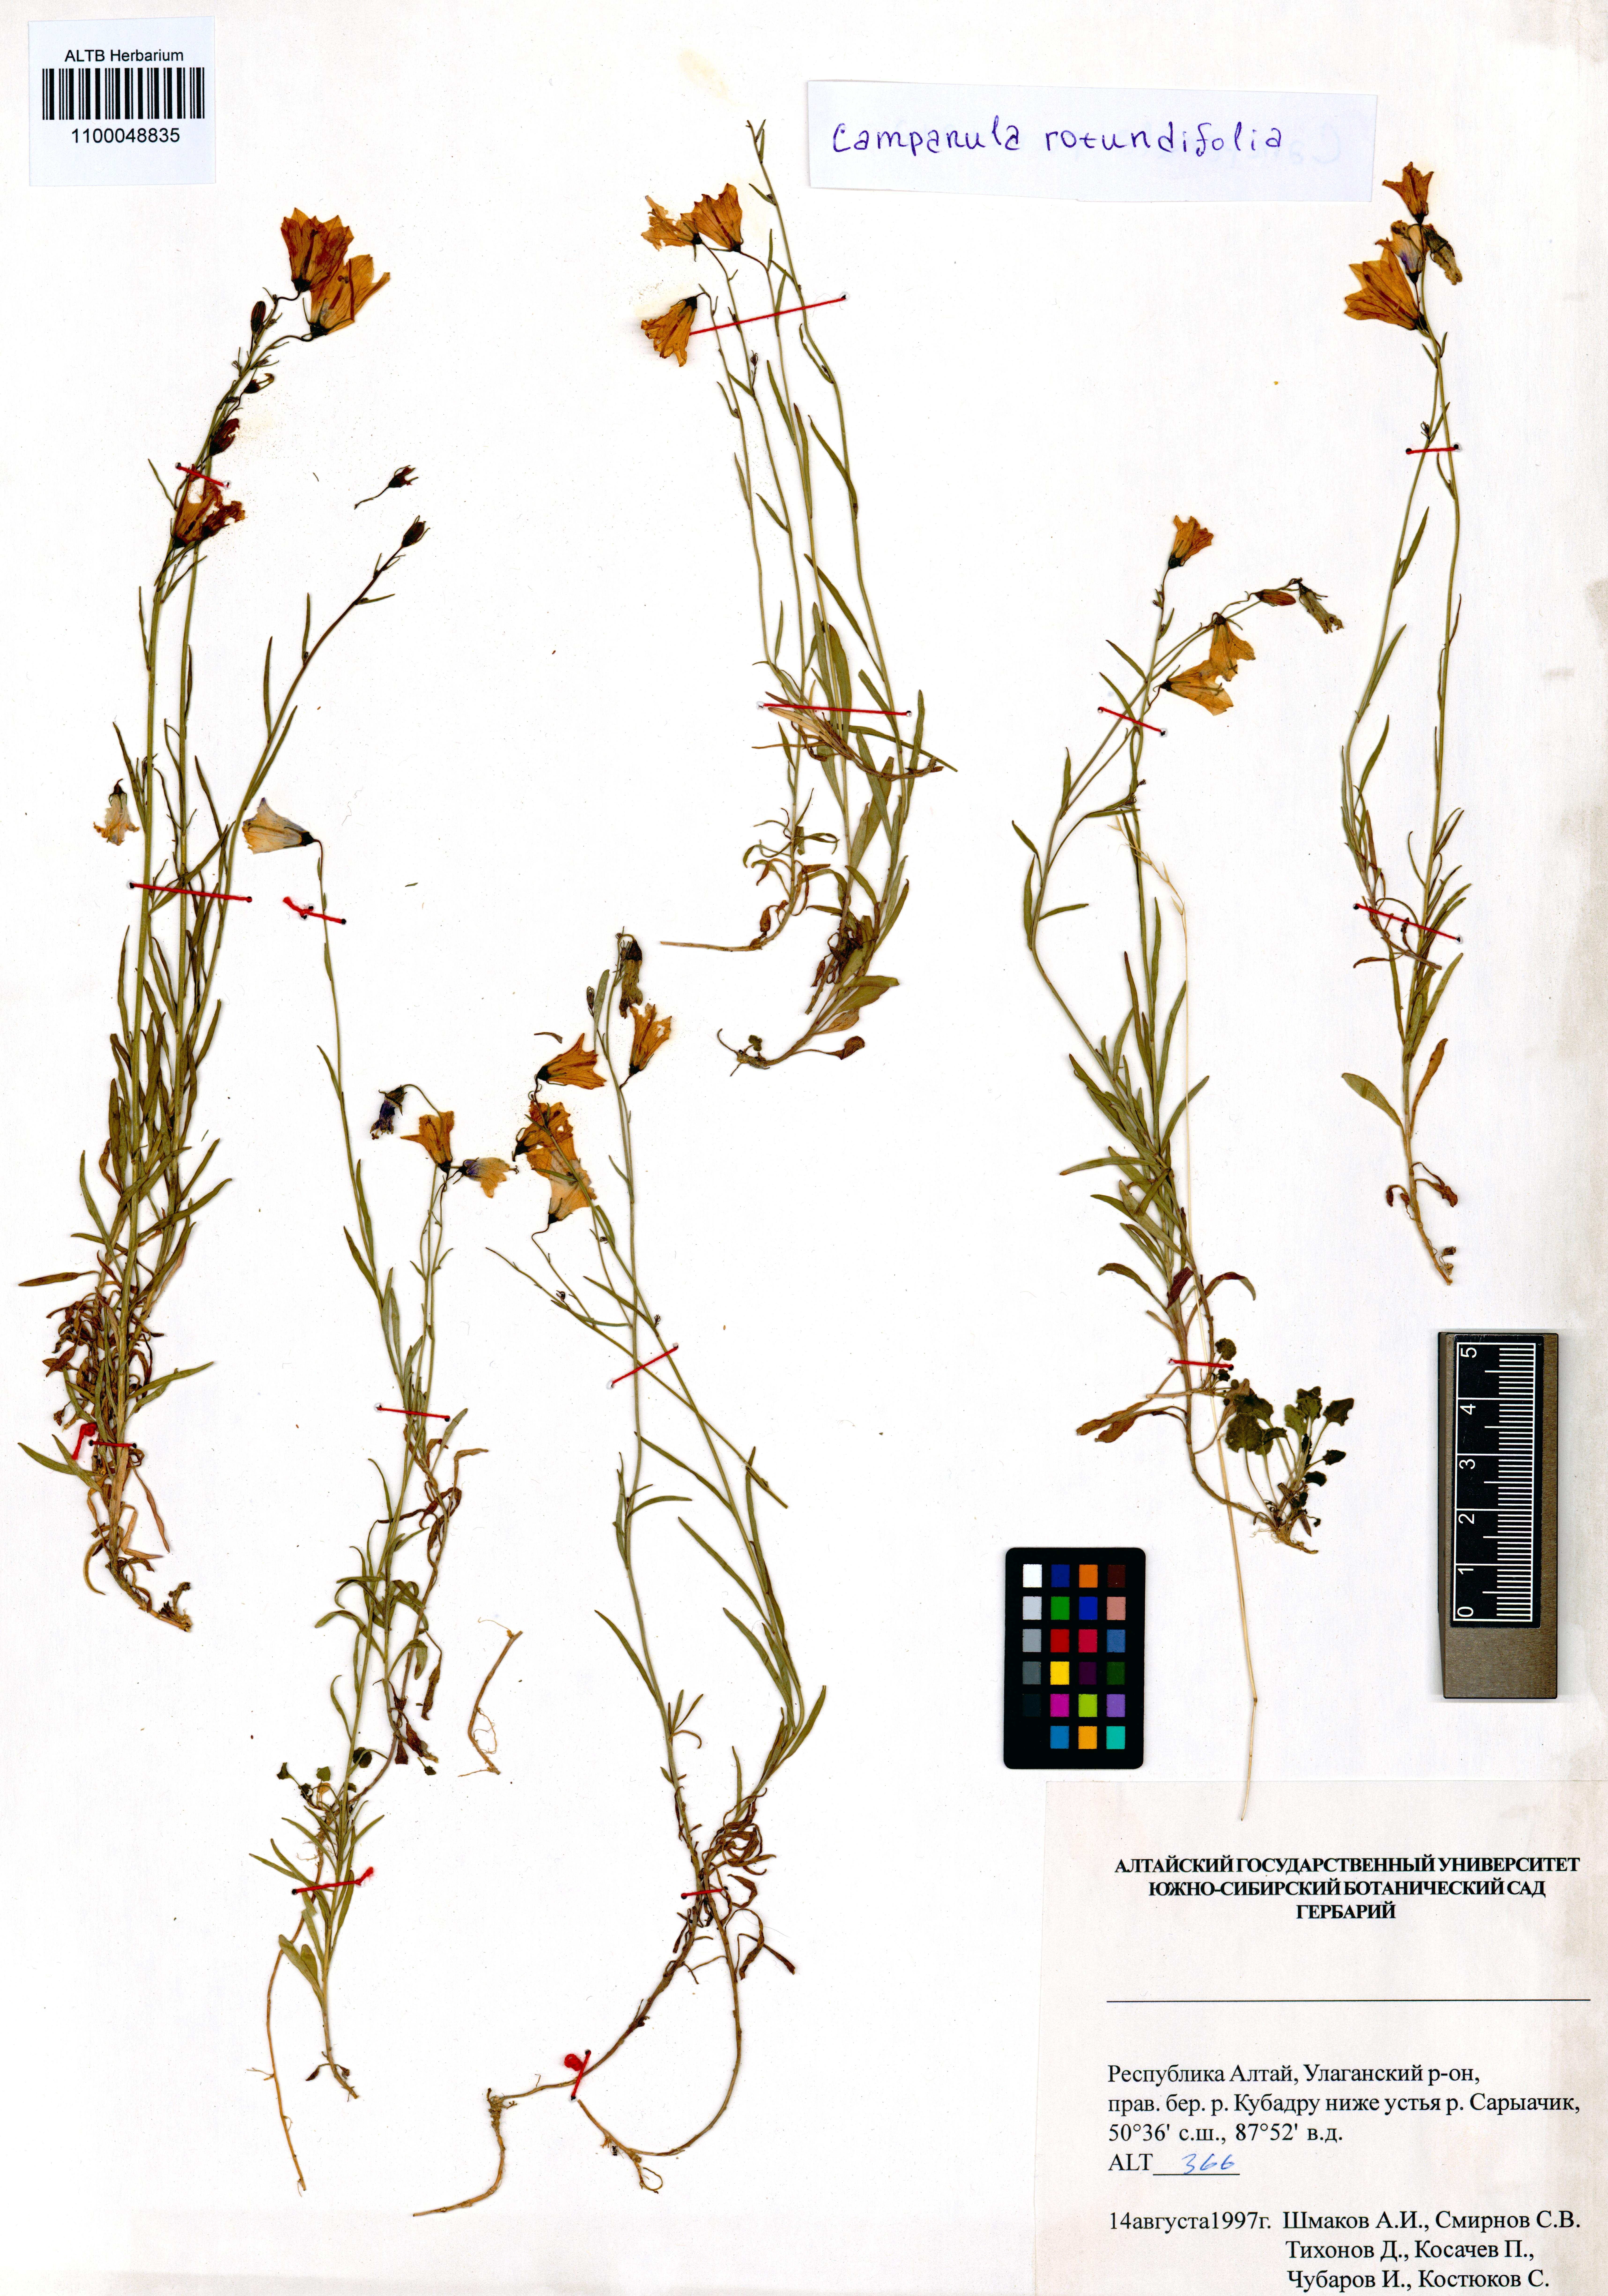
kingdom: Plantae
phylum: Tracheophyta
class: Magnoliopsida
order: Asterales
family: Campanulaceae
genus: Campanula
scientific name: Campanula rotundifolia
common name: Harebell
